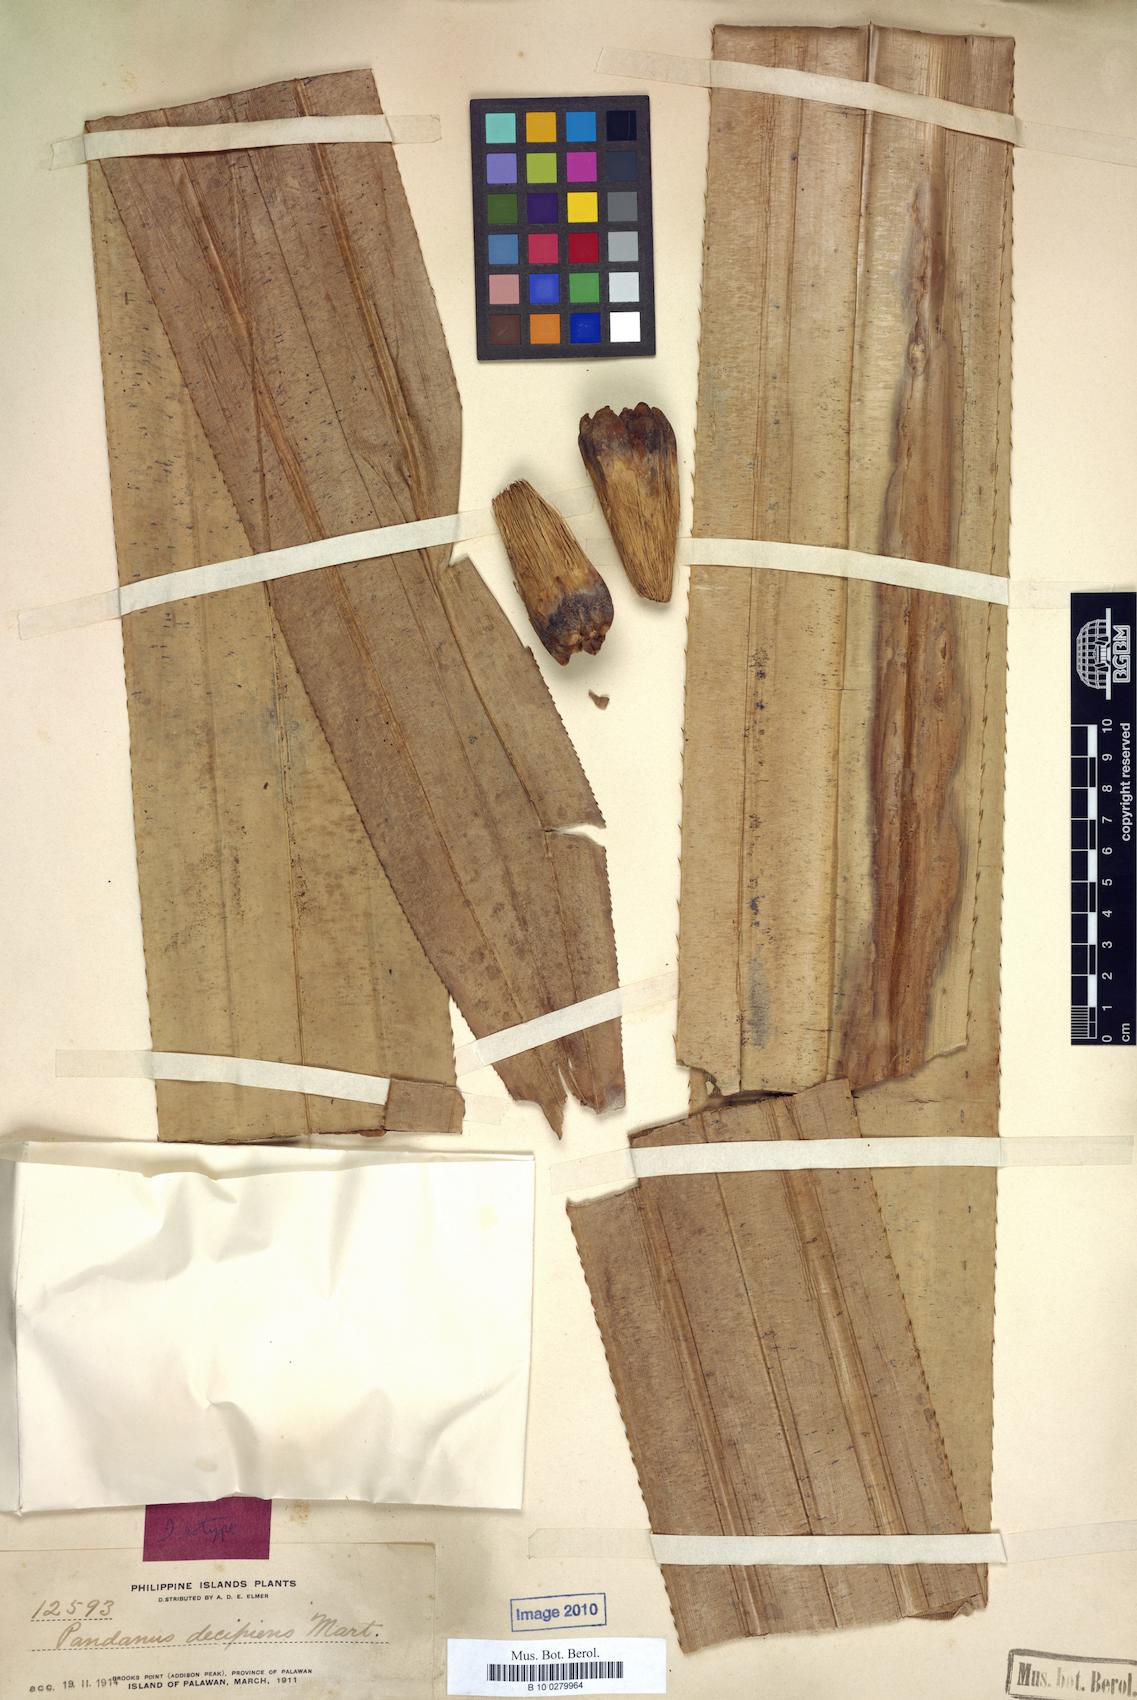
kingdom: Plantae
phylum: Tracheophyta
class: Liliopsida
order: Pandanales
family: Pandanaceae
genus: Pandanus
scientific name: Pandanus decipiens
